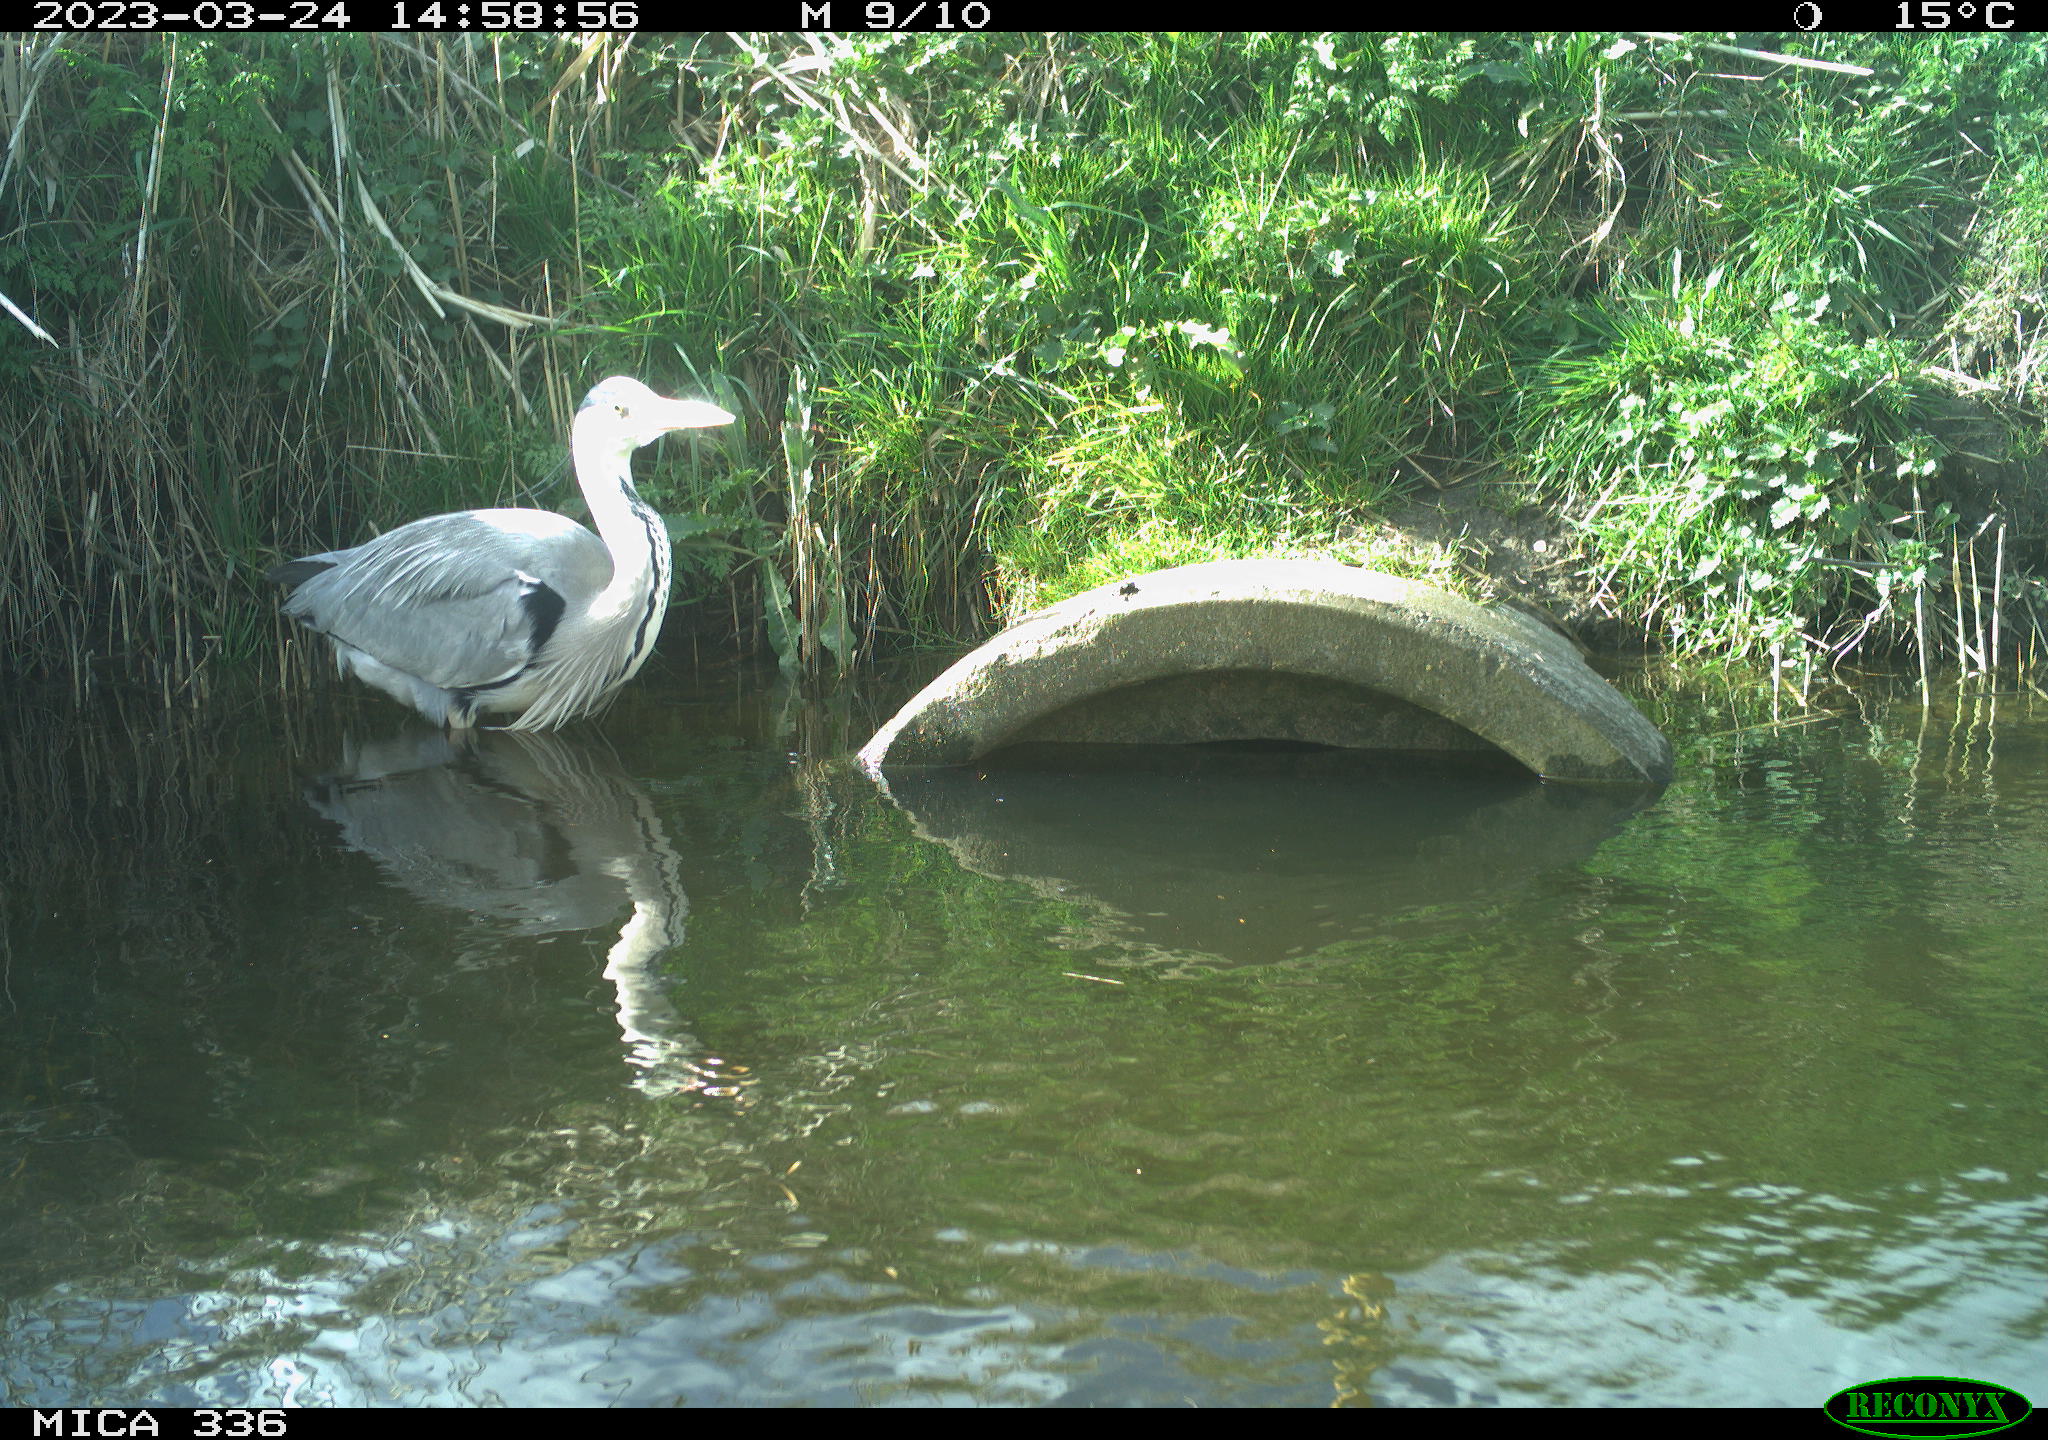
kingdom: Animalia
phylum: Chordata
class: Aves
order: Pelecaniformes
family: Ardeidae
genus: Ardea
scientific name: Ardea
